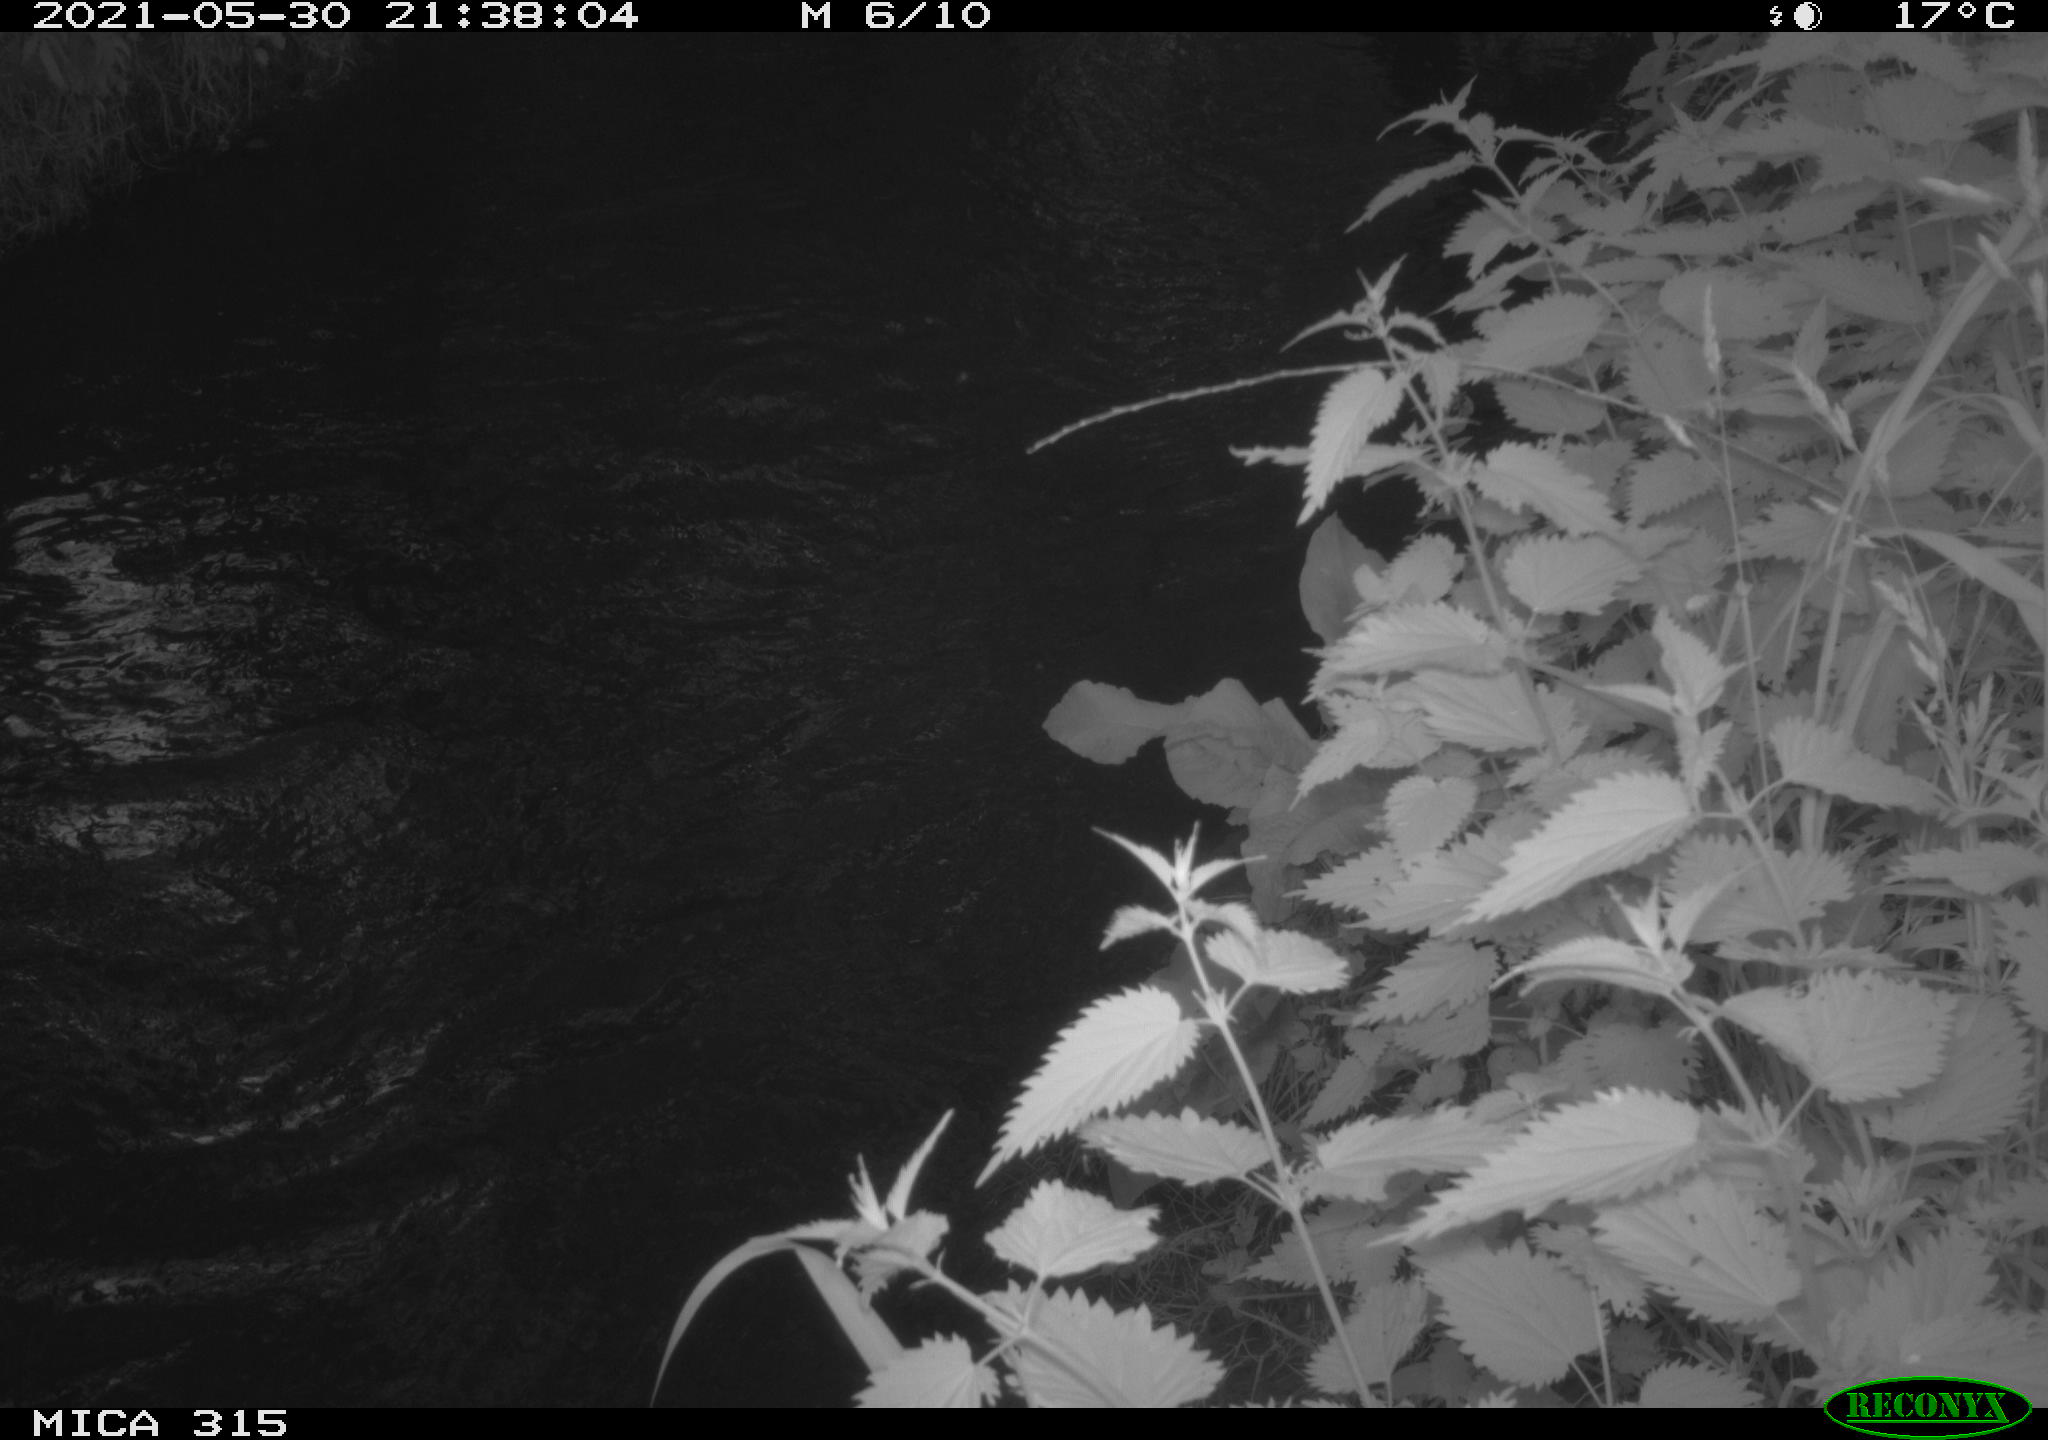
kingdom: Animalia
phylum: Chordata
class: Aves
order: Anseriformes
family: Anatidae
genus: Anas
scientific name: Anas
